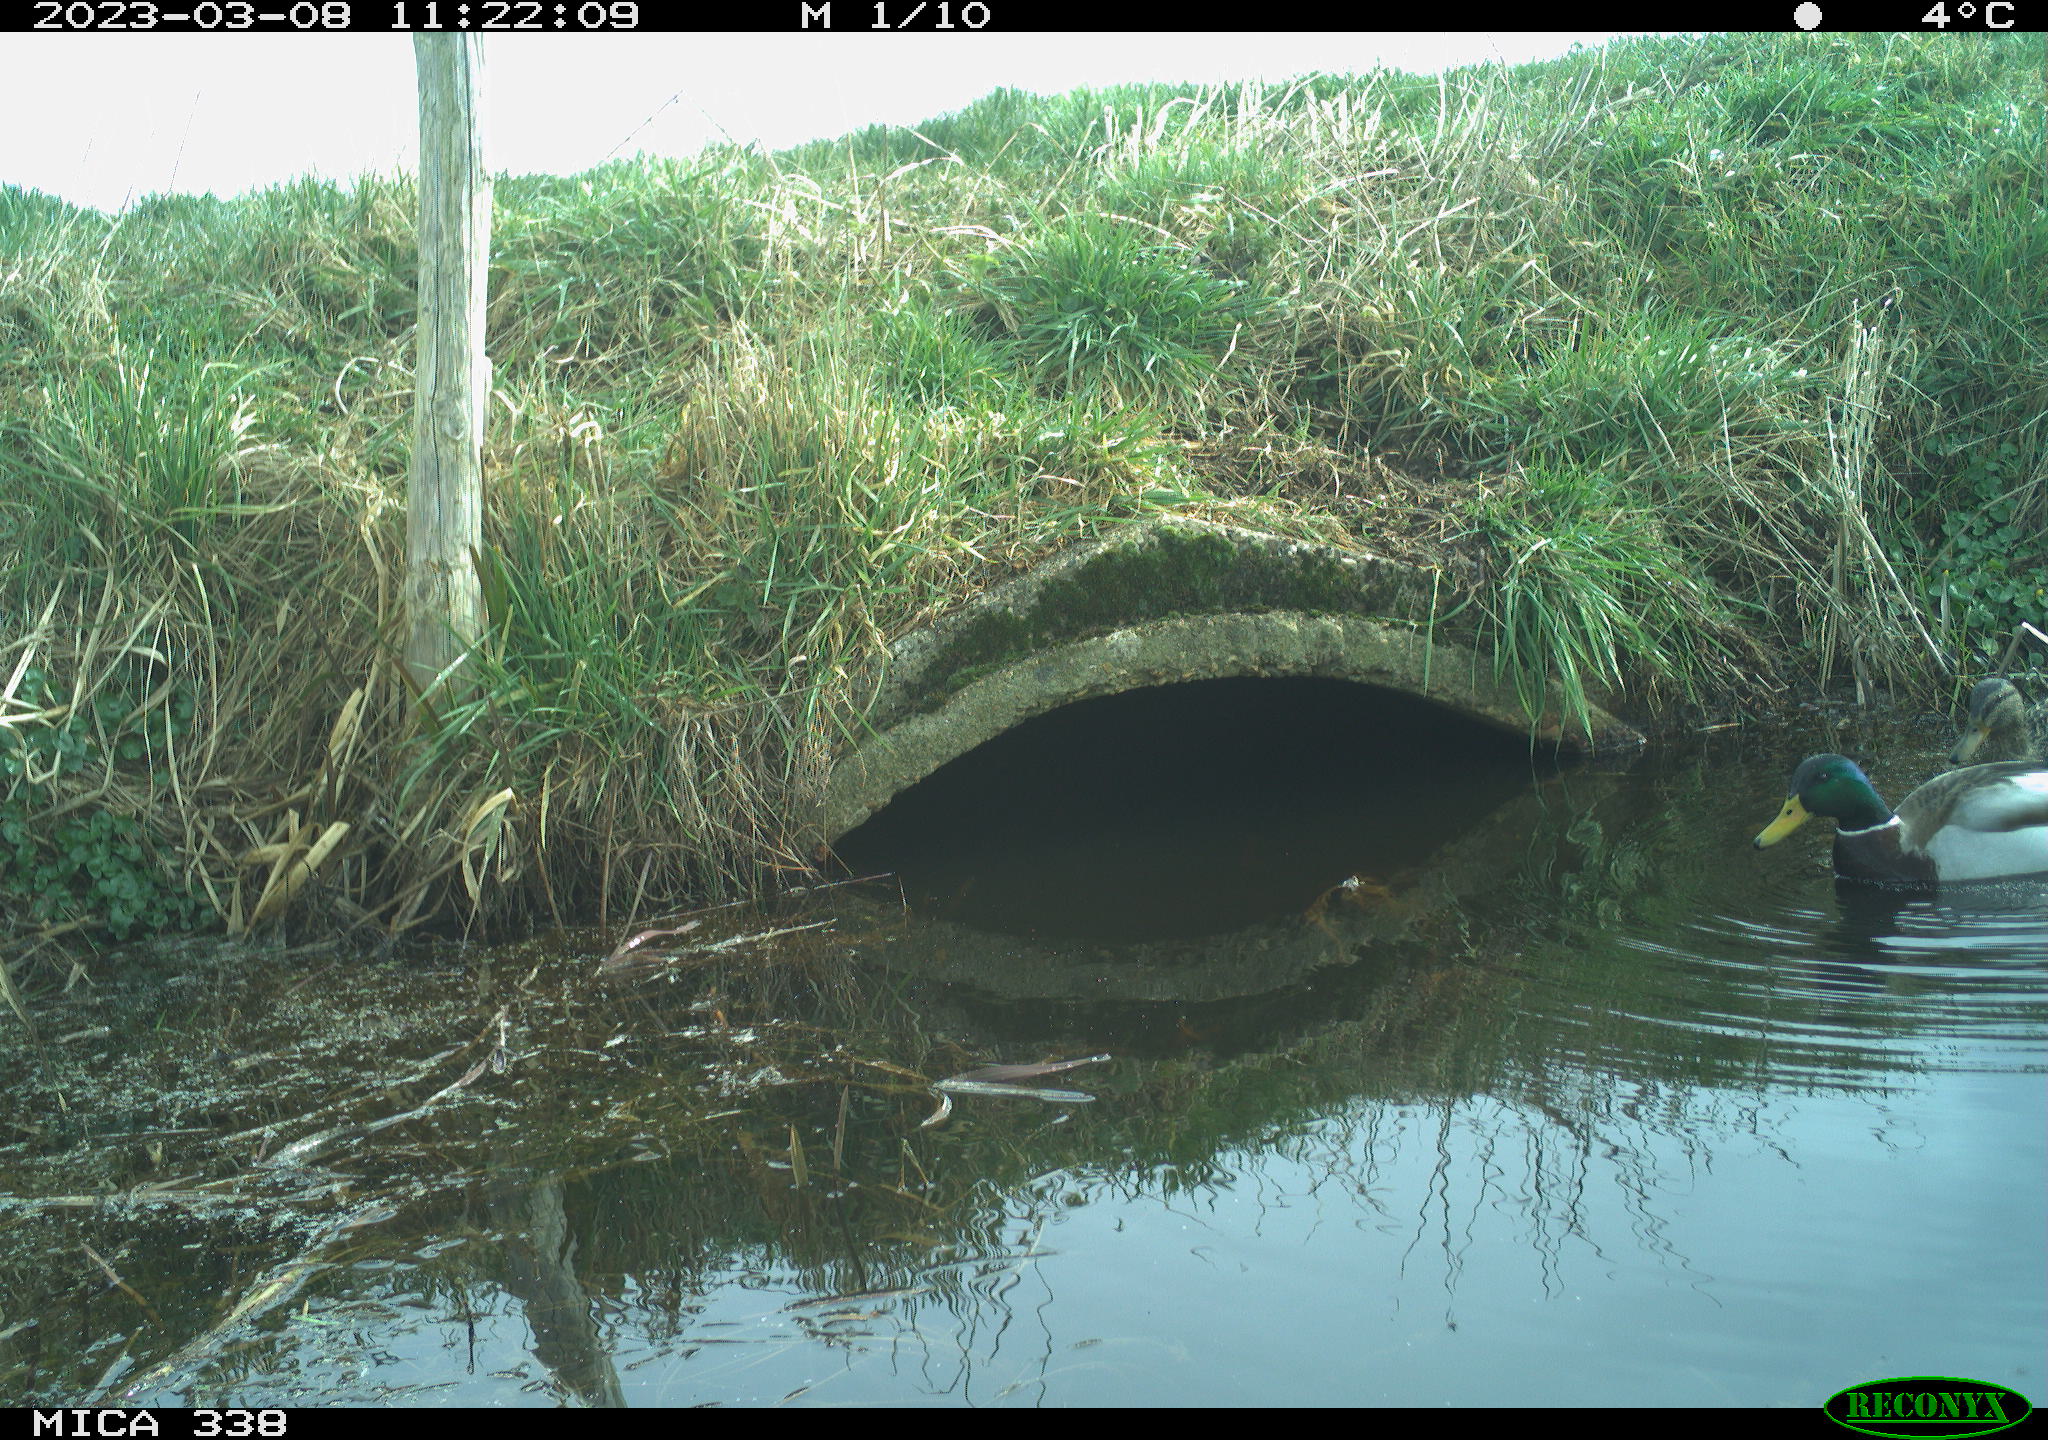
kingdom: Animalia
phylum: Chordata
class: Aves
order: Anseriformes
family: Anatidae
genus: Anas
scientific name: Anas
